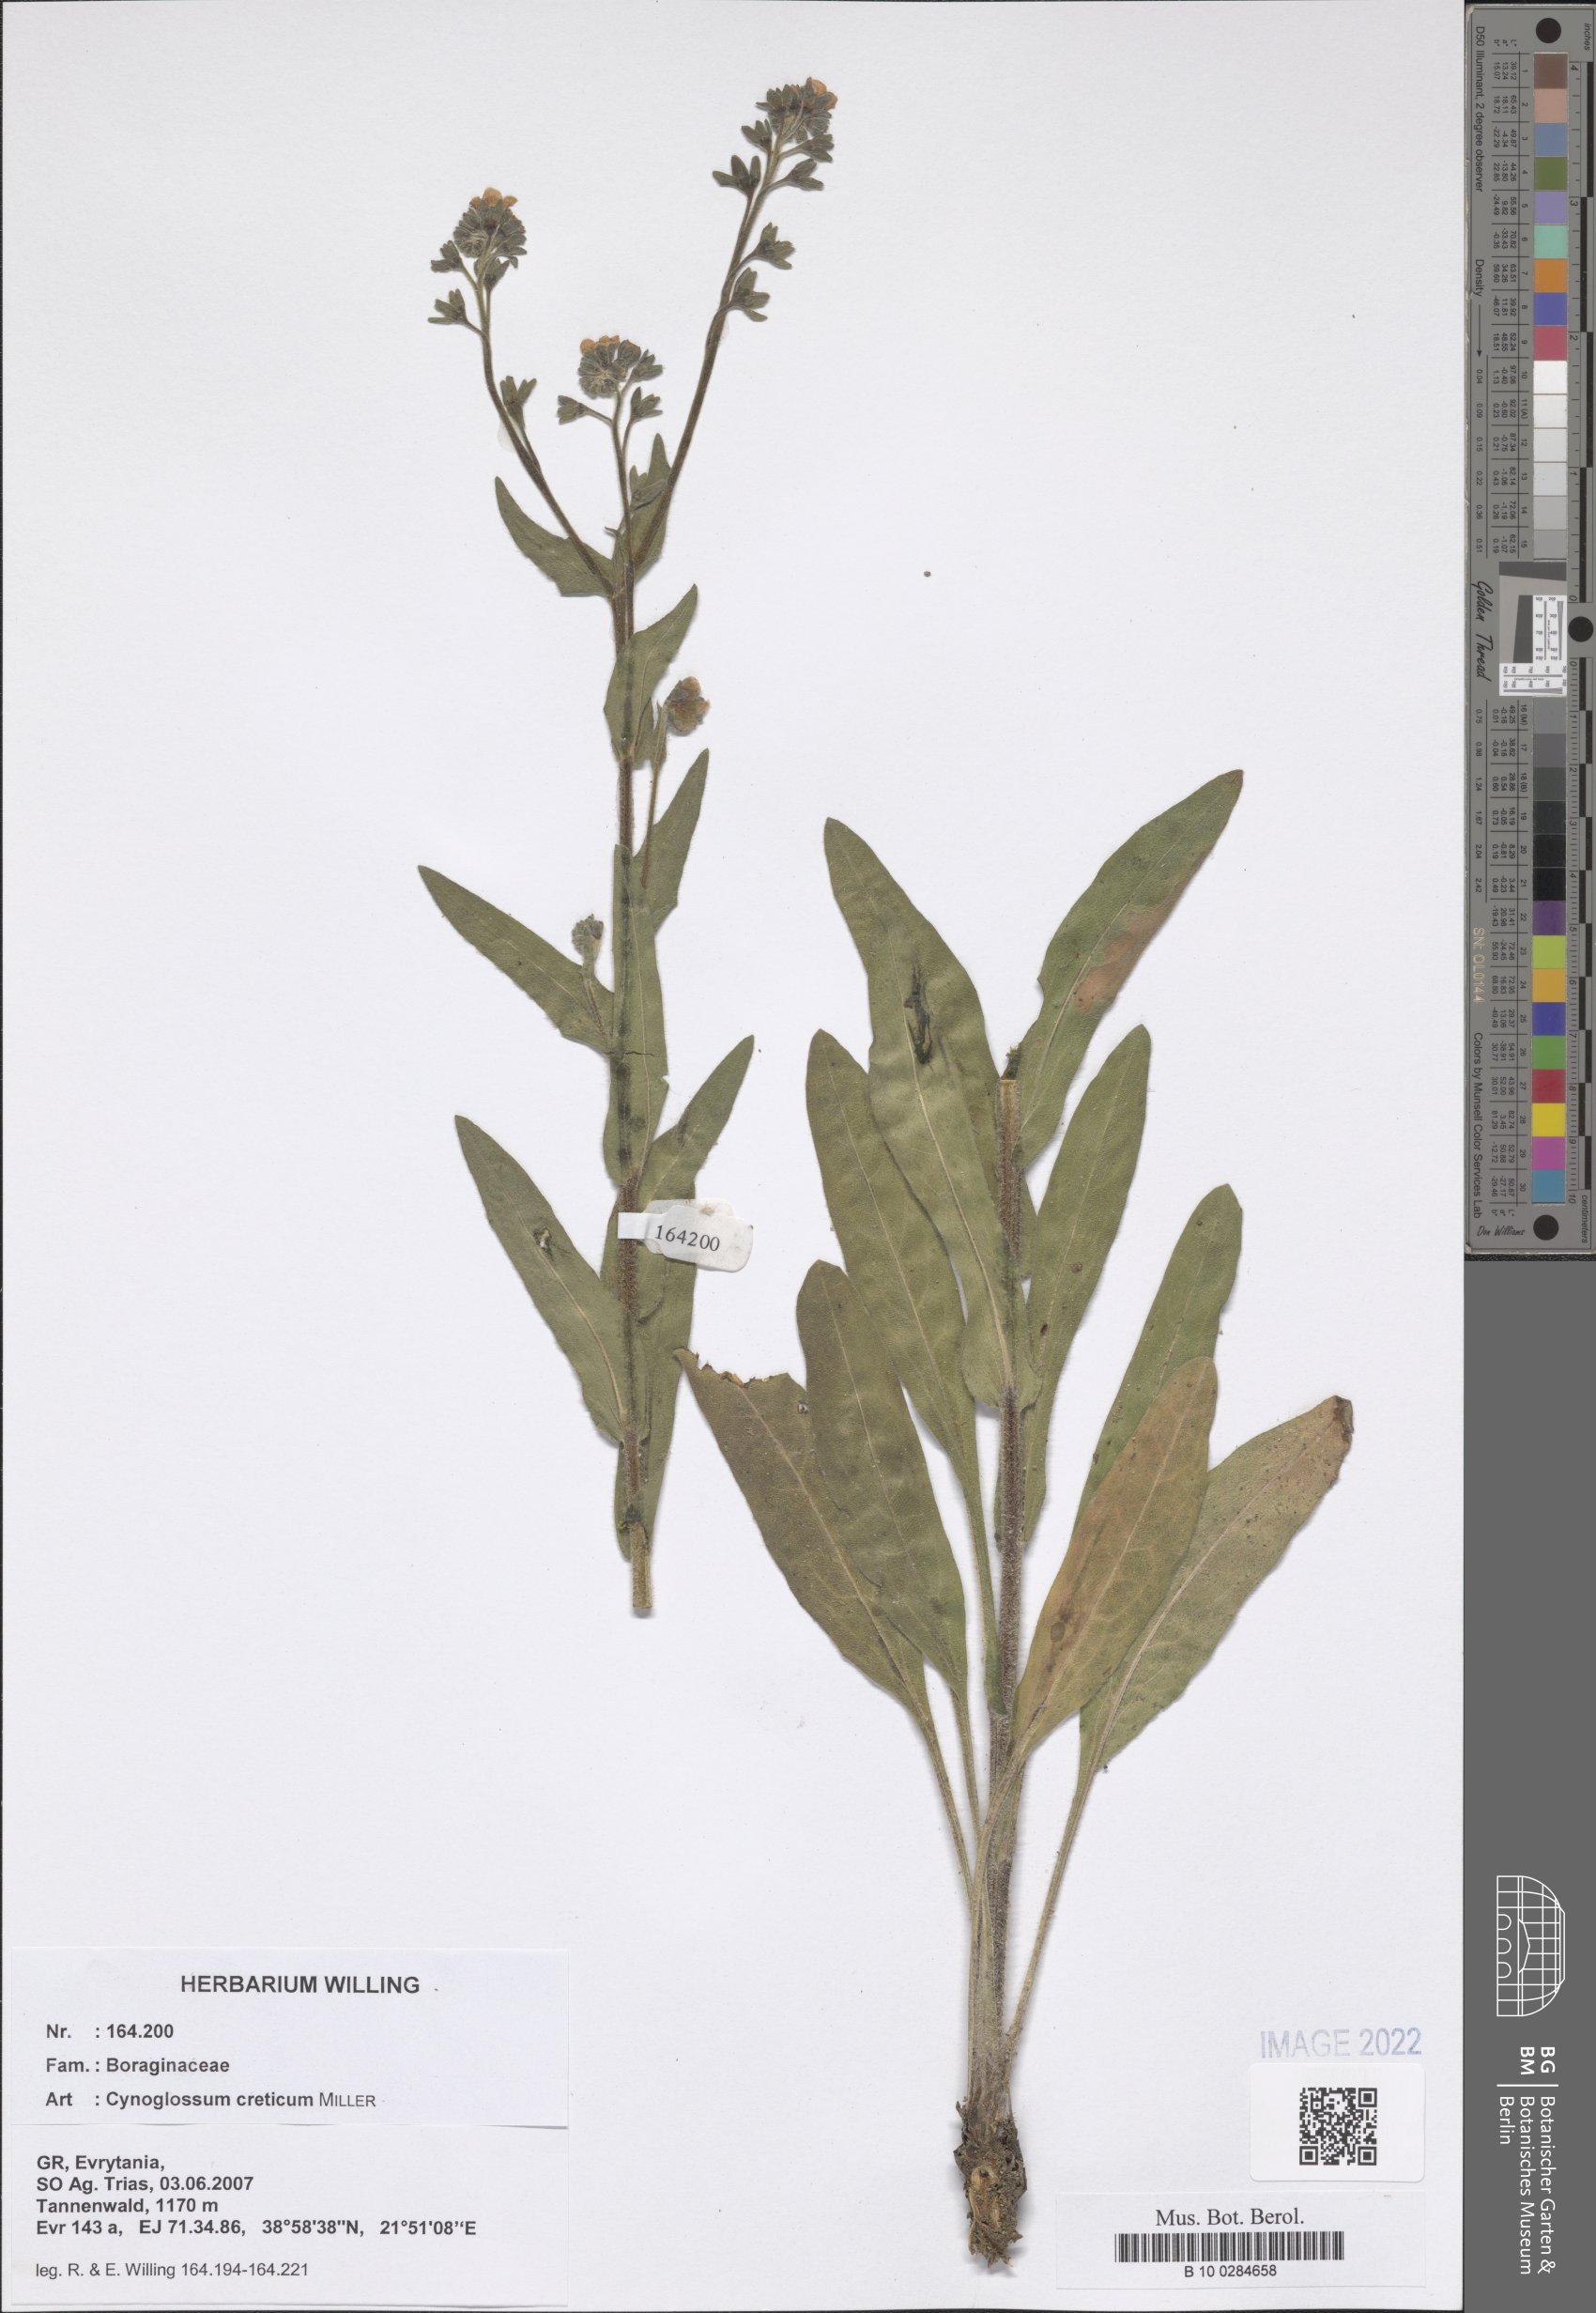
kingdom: Plantae
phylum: Tracheophyta
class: Magnoliopsida
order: Boraginales
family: Boraginaceae
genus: Cynoglossum
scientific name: Cynoglossum creticum
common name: Blue hound's tongue
